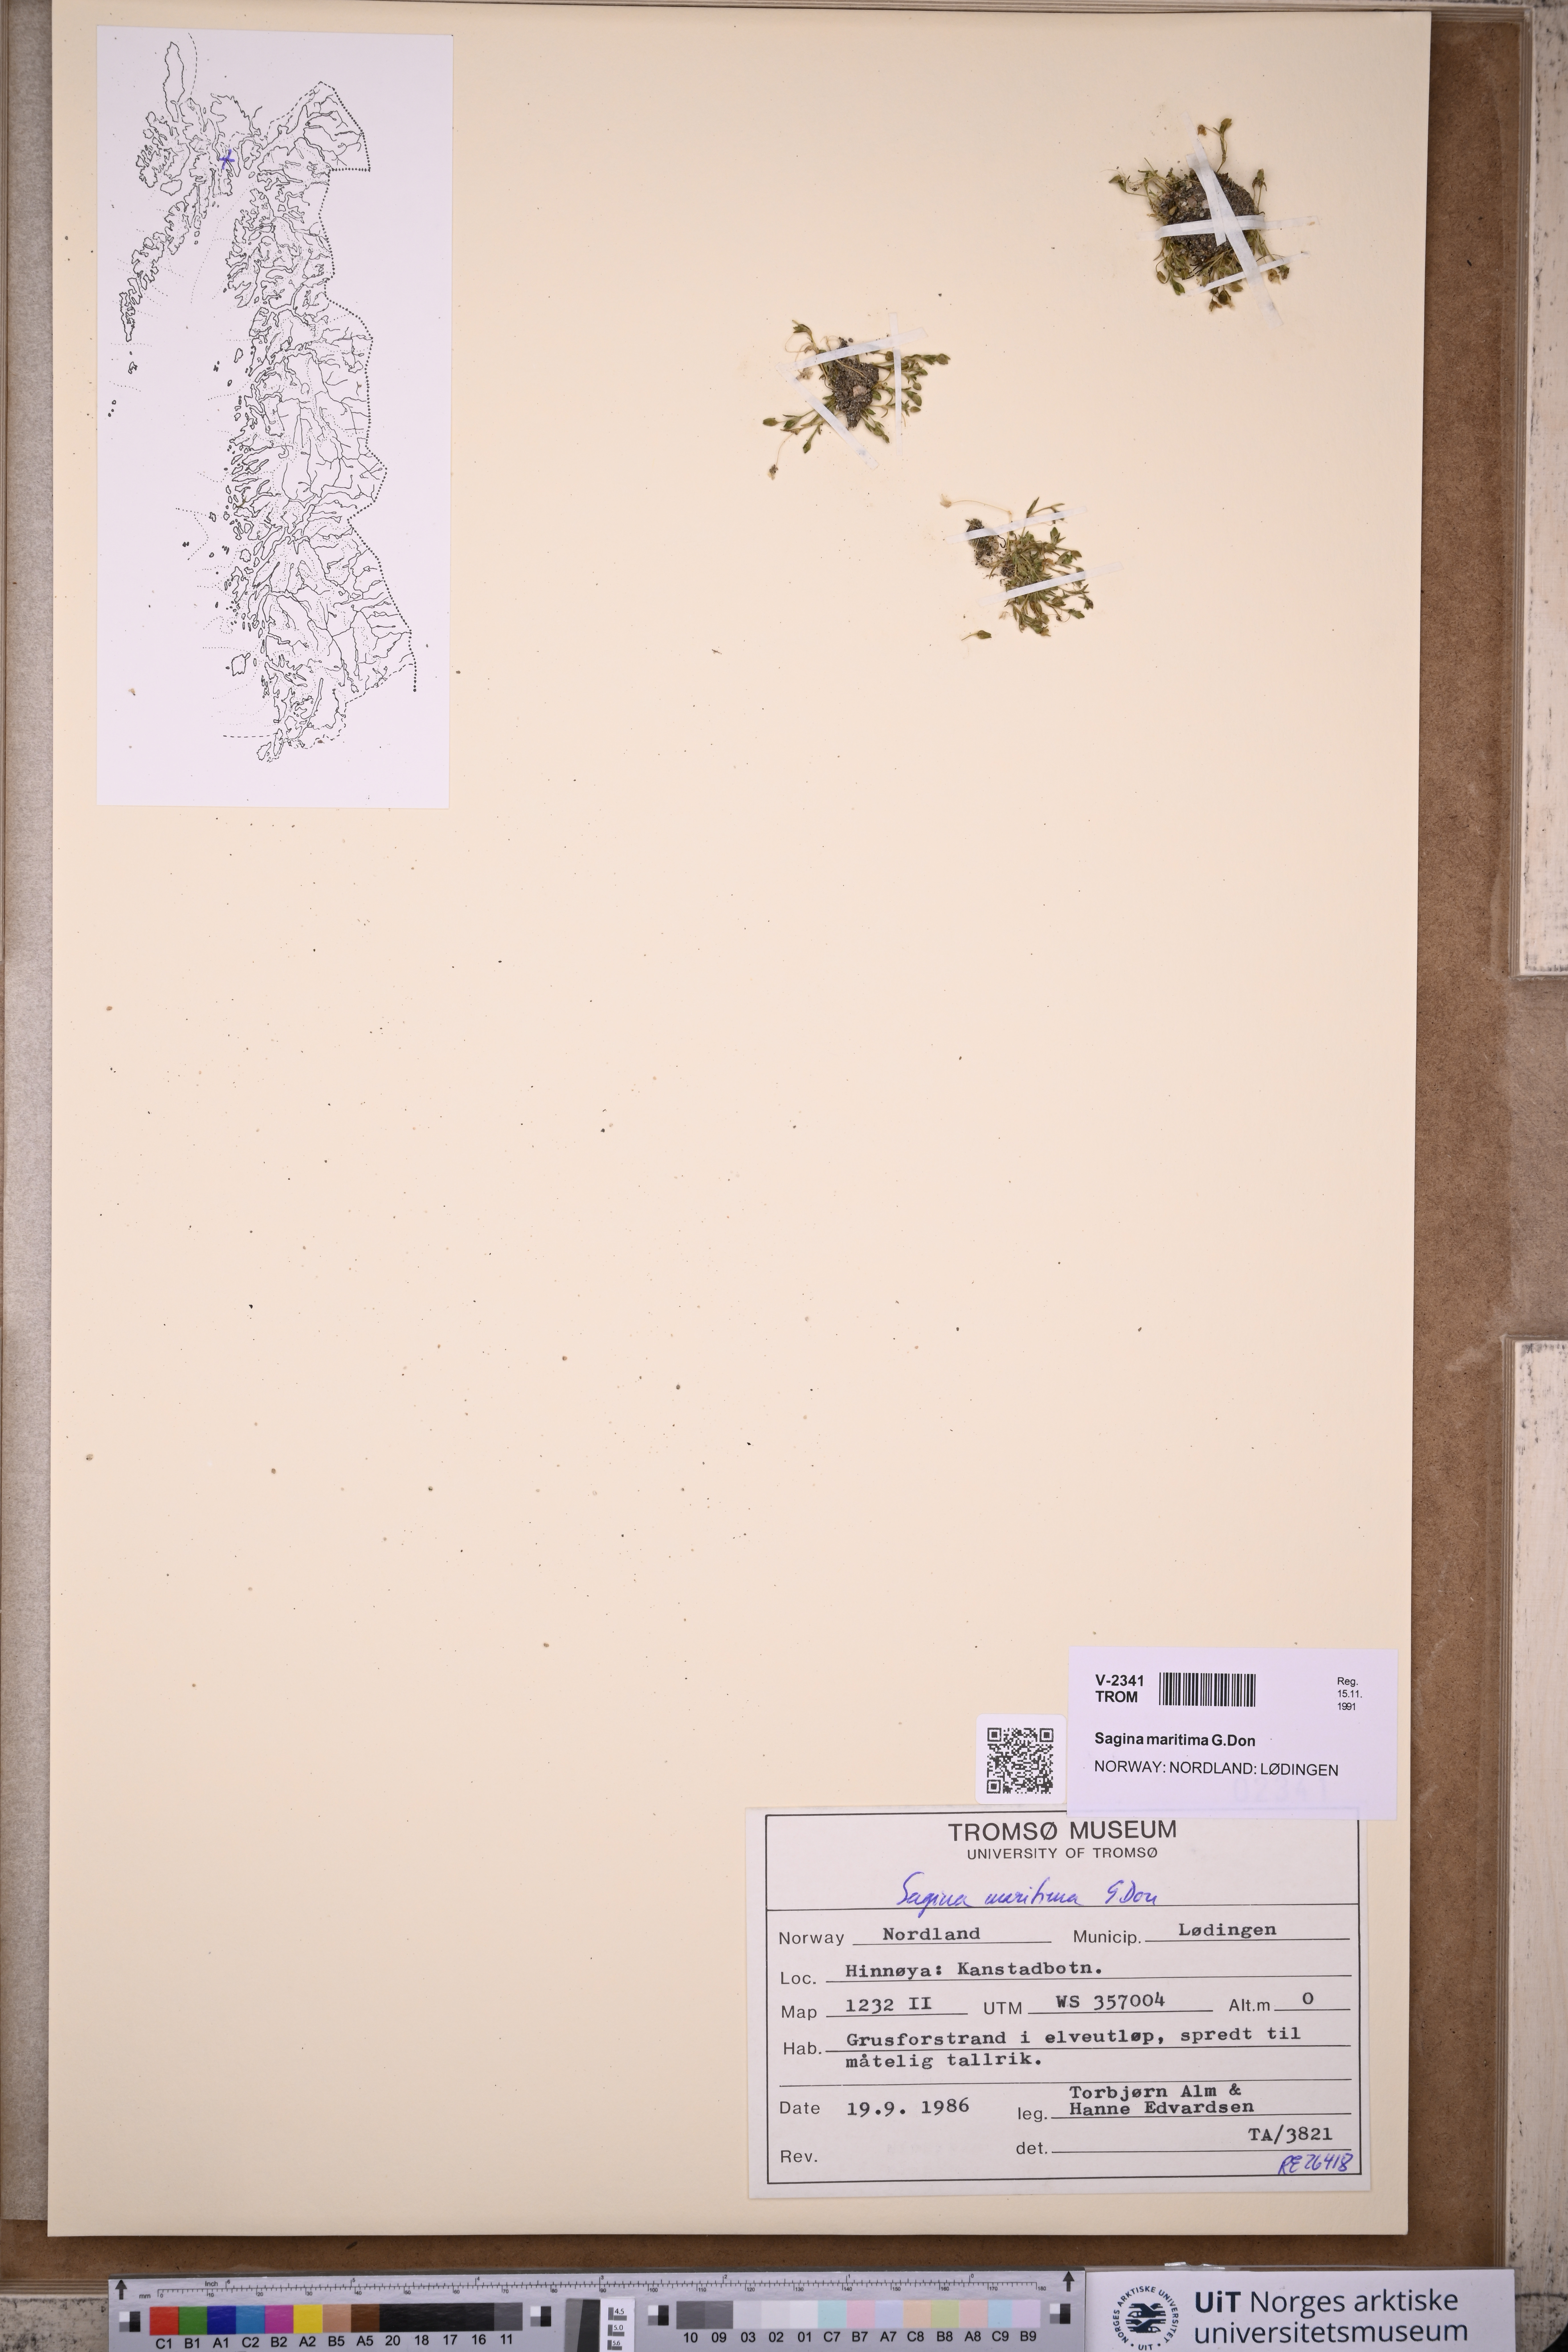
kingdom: Plantae
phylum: Tracheophyta
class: Magnoliopsida
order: Caryophyllales
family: Caryophyllaceae
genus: Sagina
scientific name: Sagina maritima
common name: Sea pearlwort
